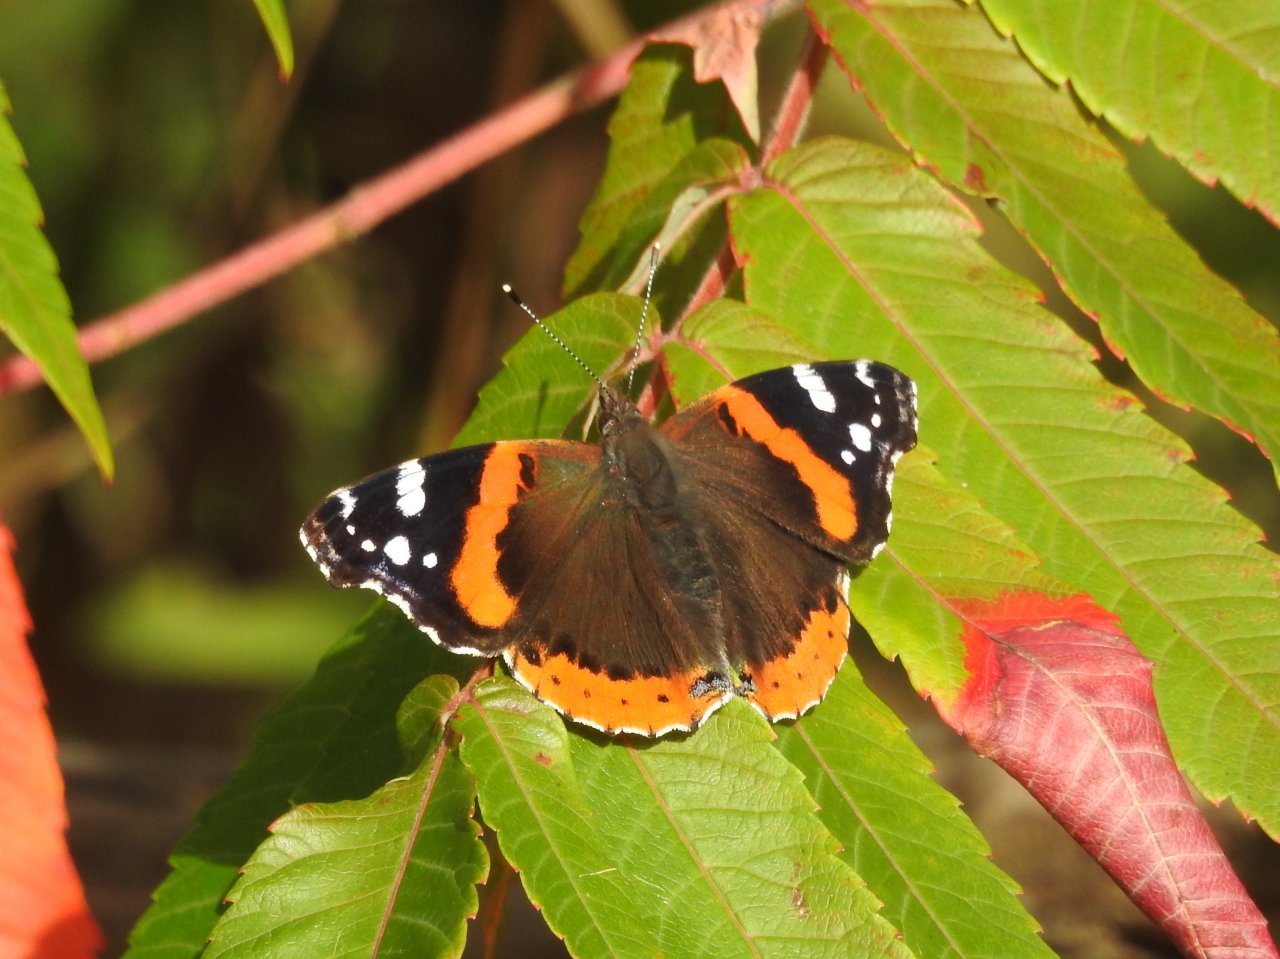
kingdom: Animalia
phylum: Arthropoda
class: Insecta
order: Lepidoptera
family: Nymphalidae
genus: Vanessa
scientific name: Vanessa atalanta
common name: Red Admiral
